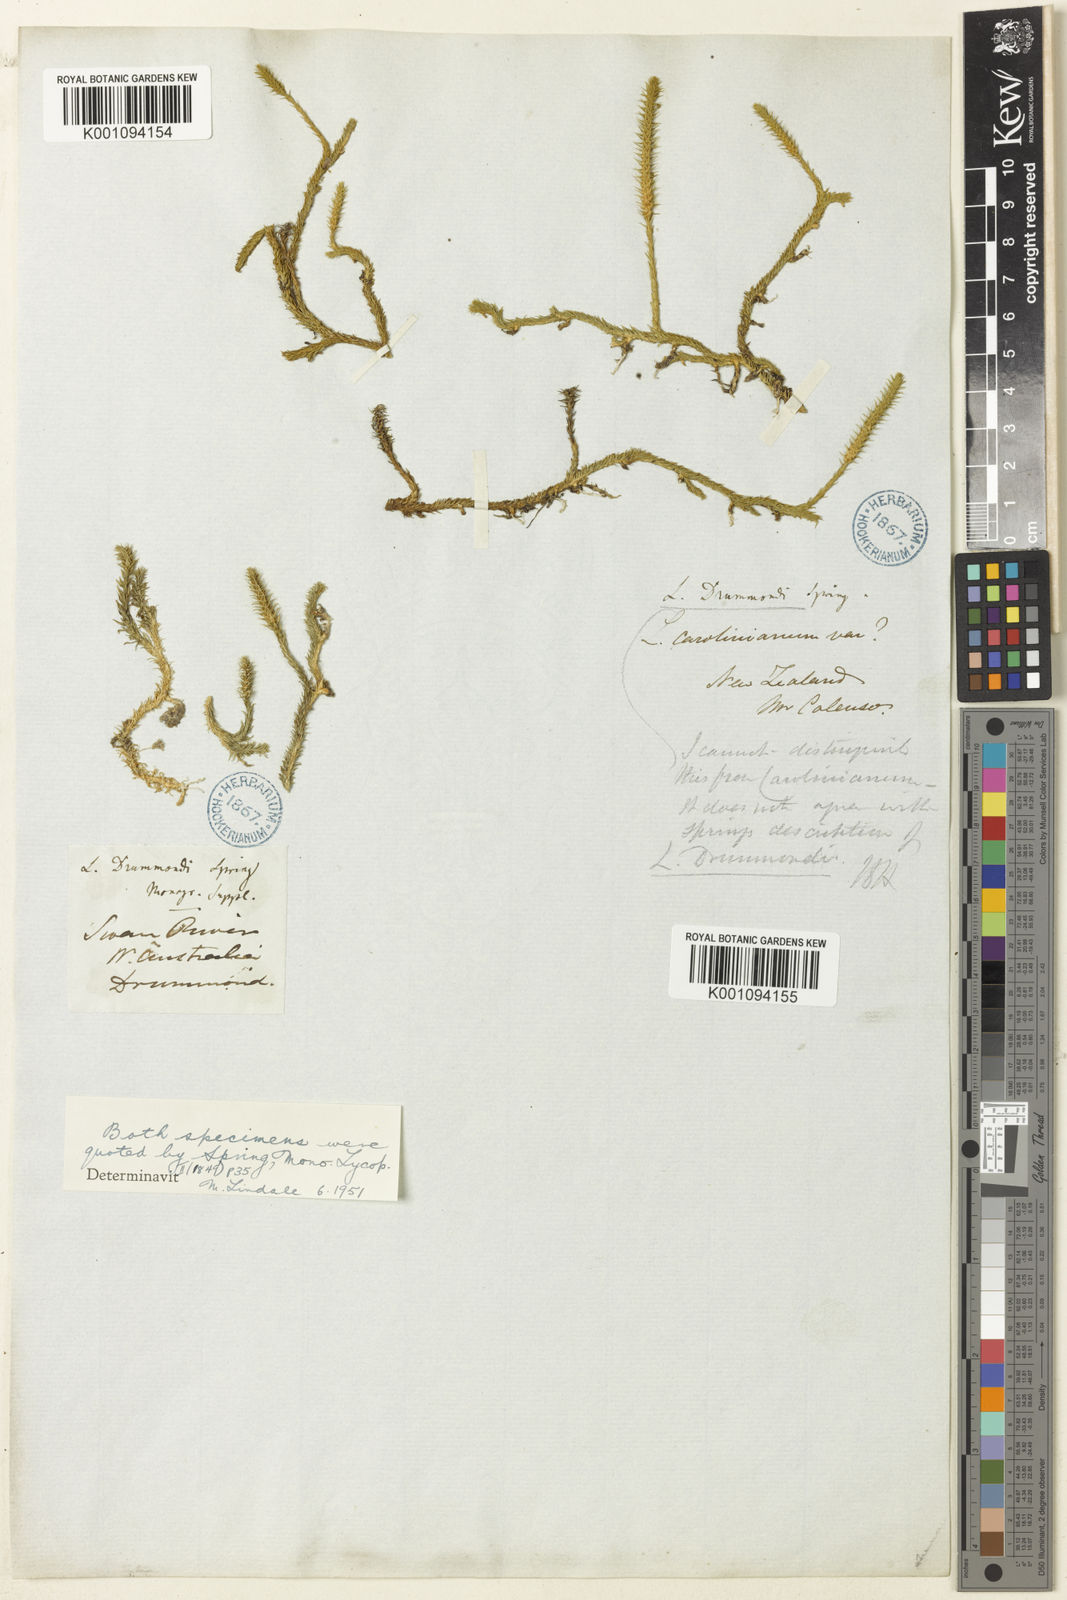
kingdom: Plantae
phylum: Tracheophyta
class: Lycopodiopsida
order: Lycopodiales
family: Lycopodiaceae
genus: Brownseya
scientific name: Brownseya serpentina
